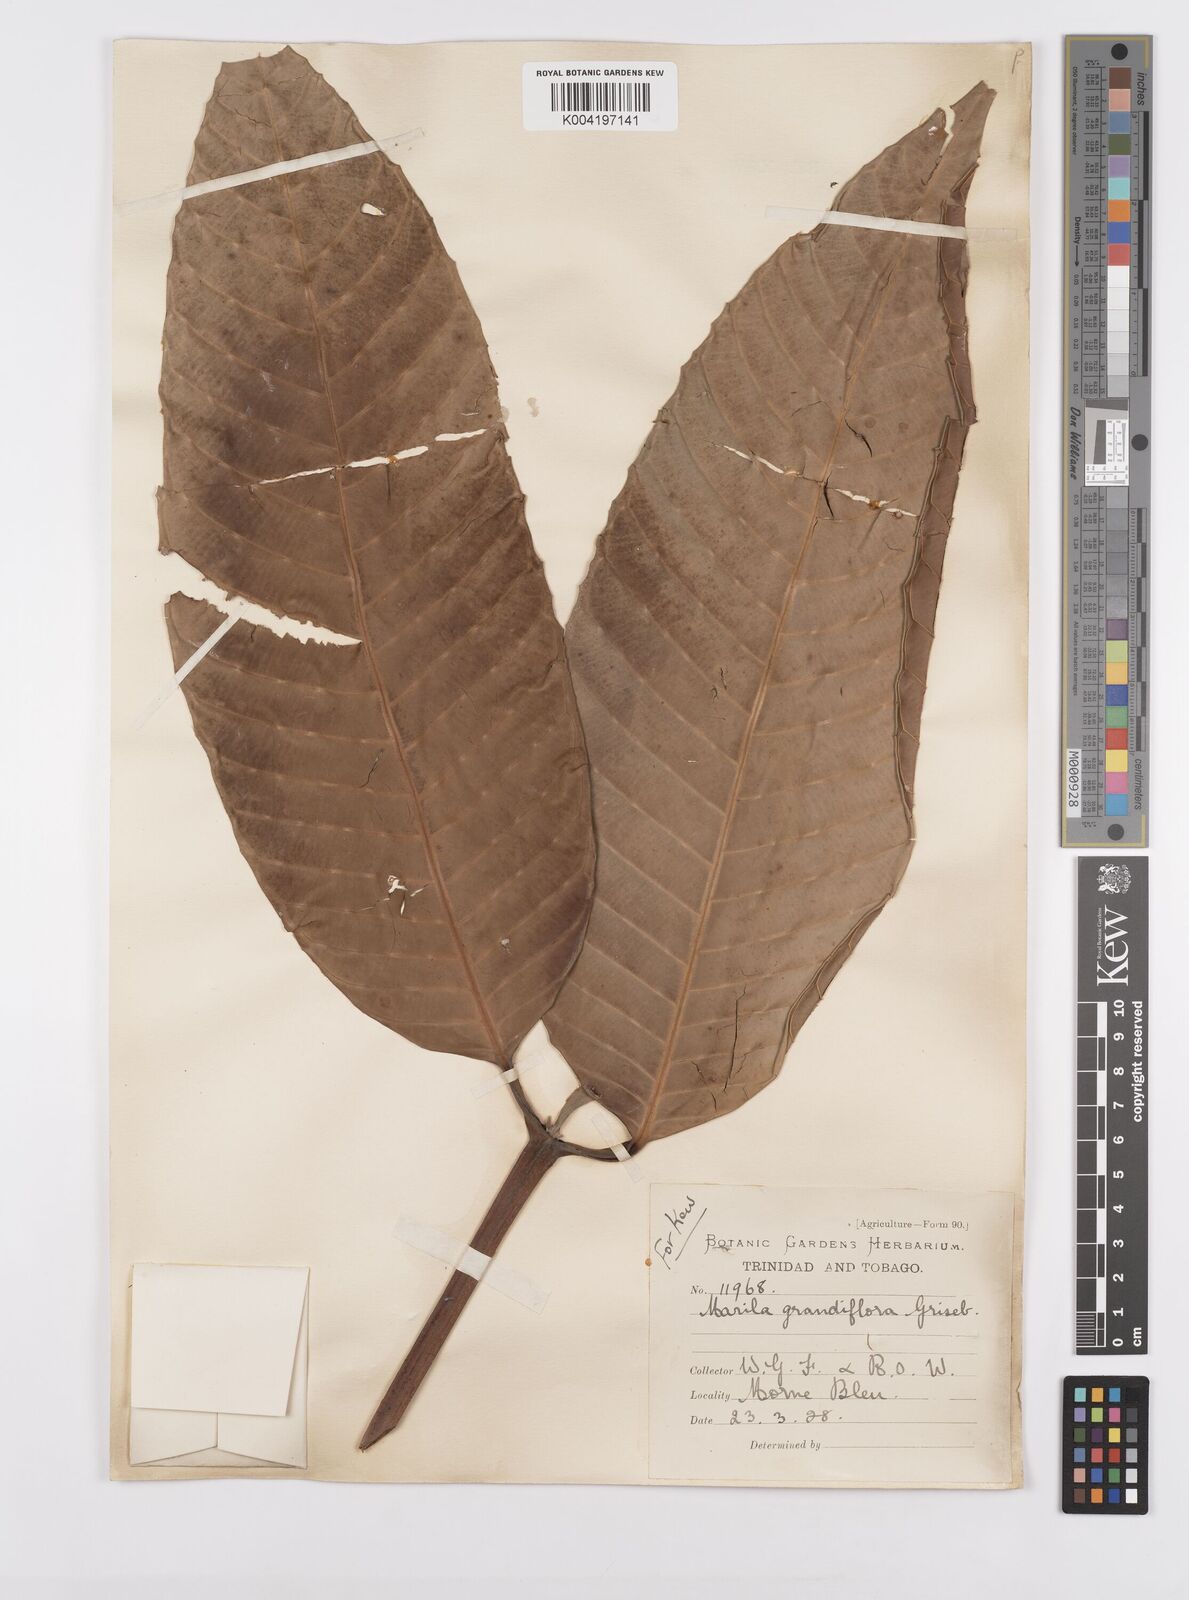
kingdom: Plantae
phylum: Tracheophyta
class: Magnoliopsida
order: Malpighiales
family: Calophyllaceae
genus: Marila
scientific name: Marila grandiflora
